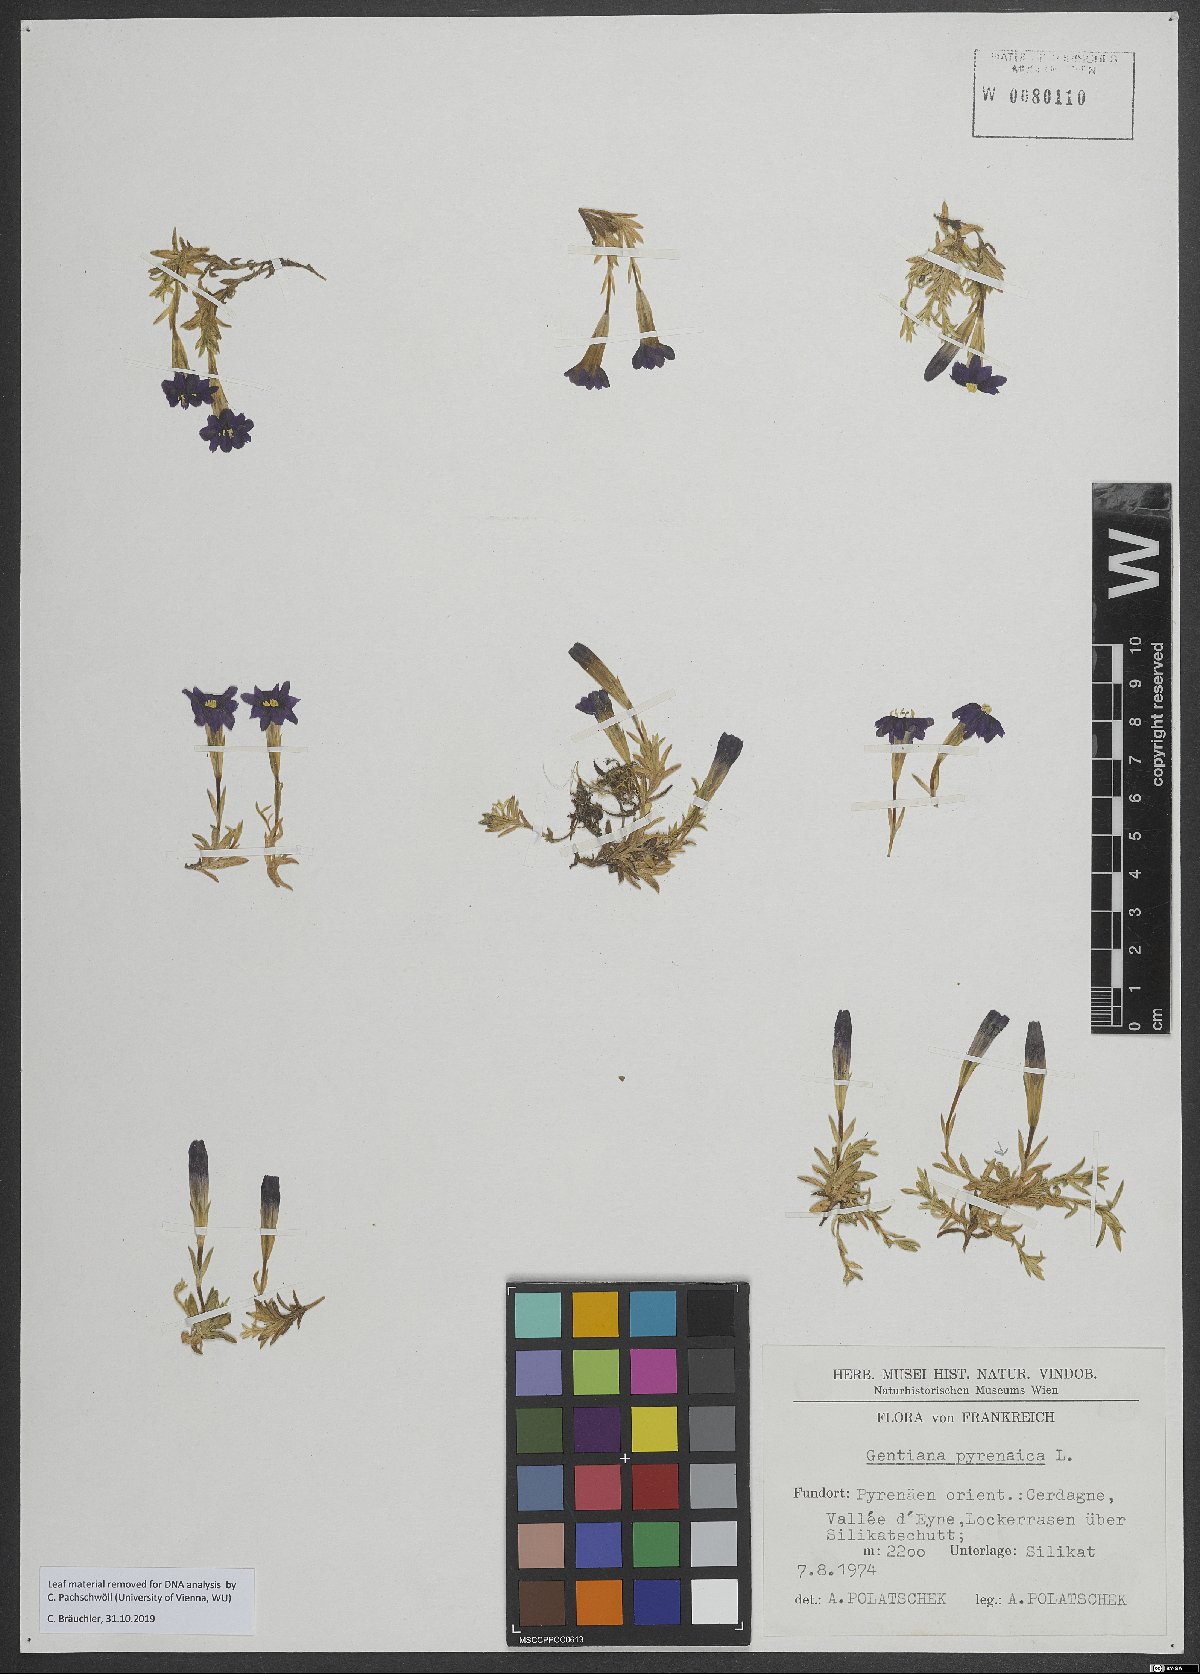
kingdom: Plantae
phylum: Tracheophyta
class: Magnoliopsida
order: Gentianales
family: Gentianaceae
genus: Gentiana
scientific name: Gentiana pyrenaica
